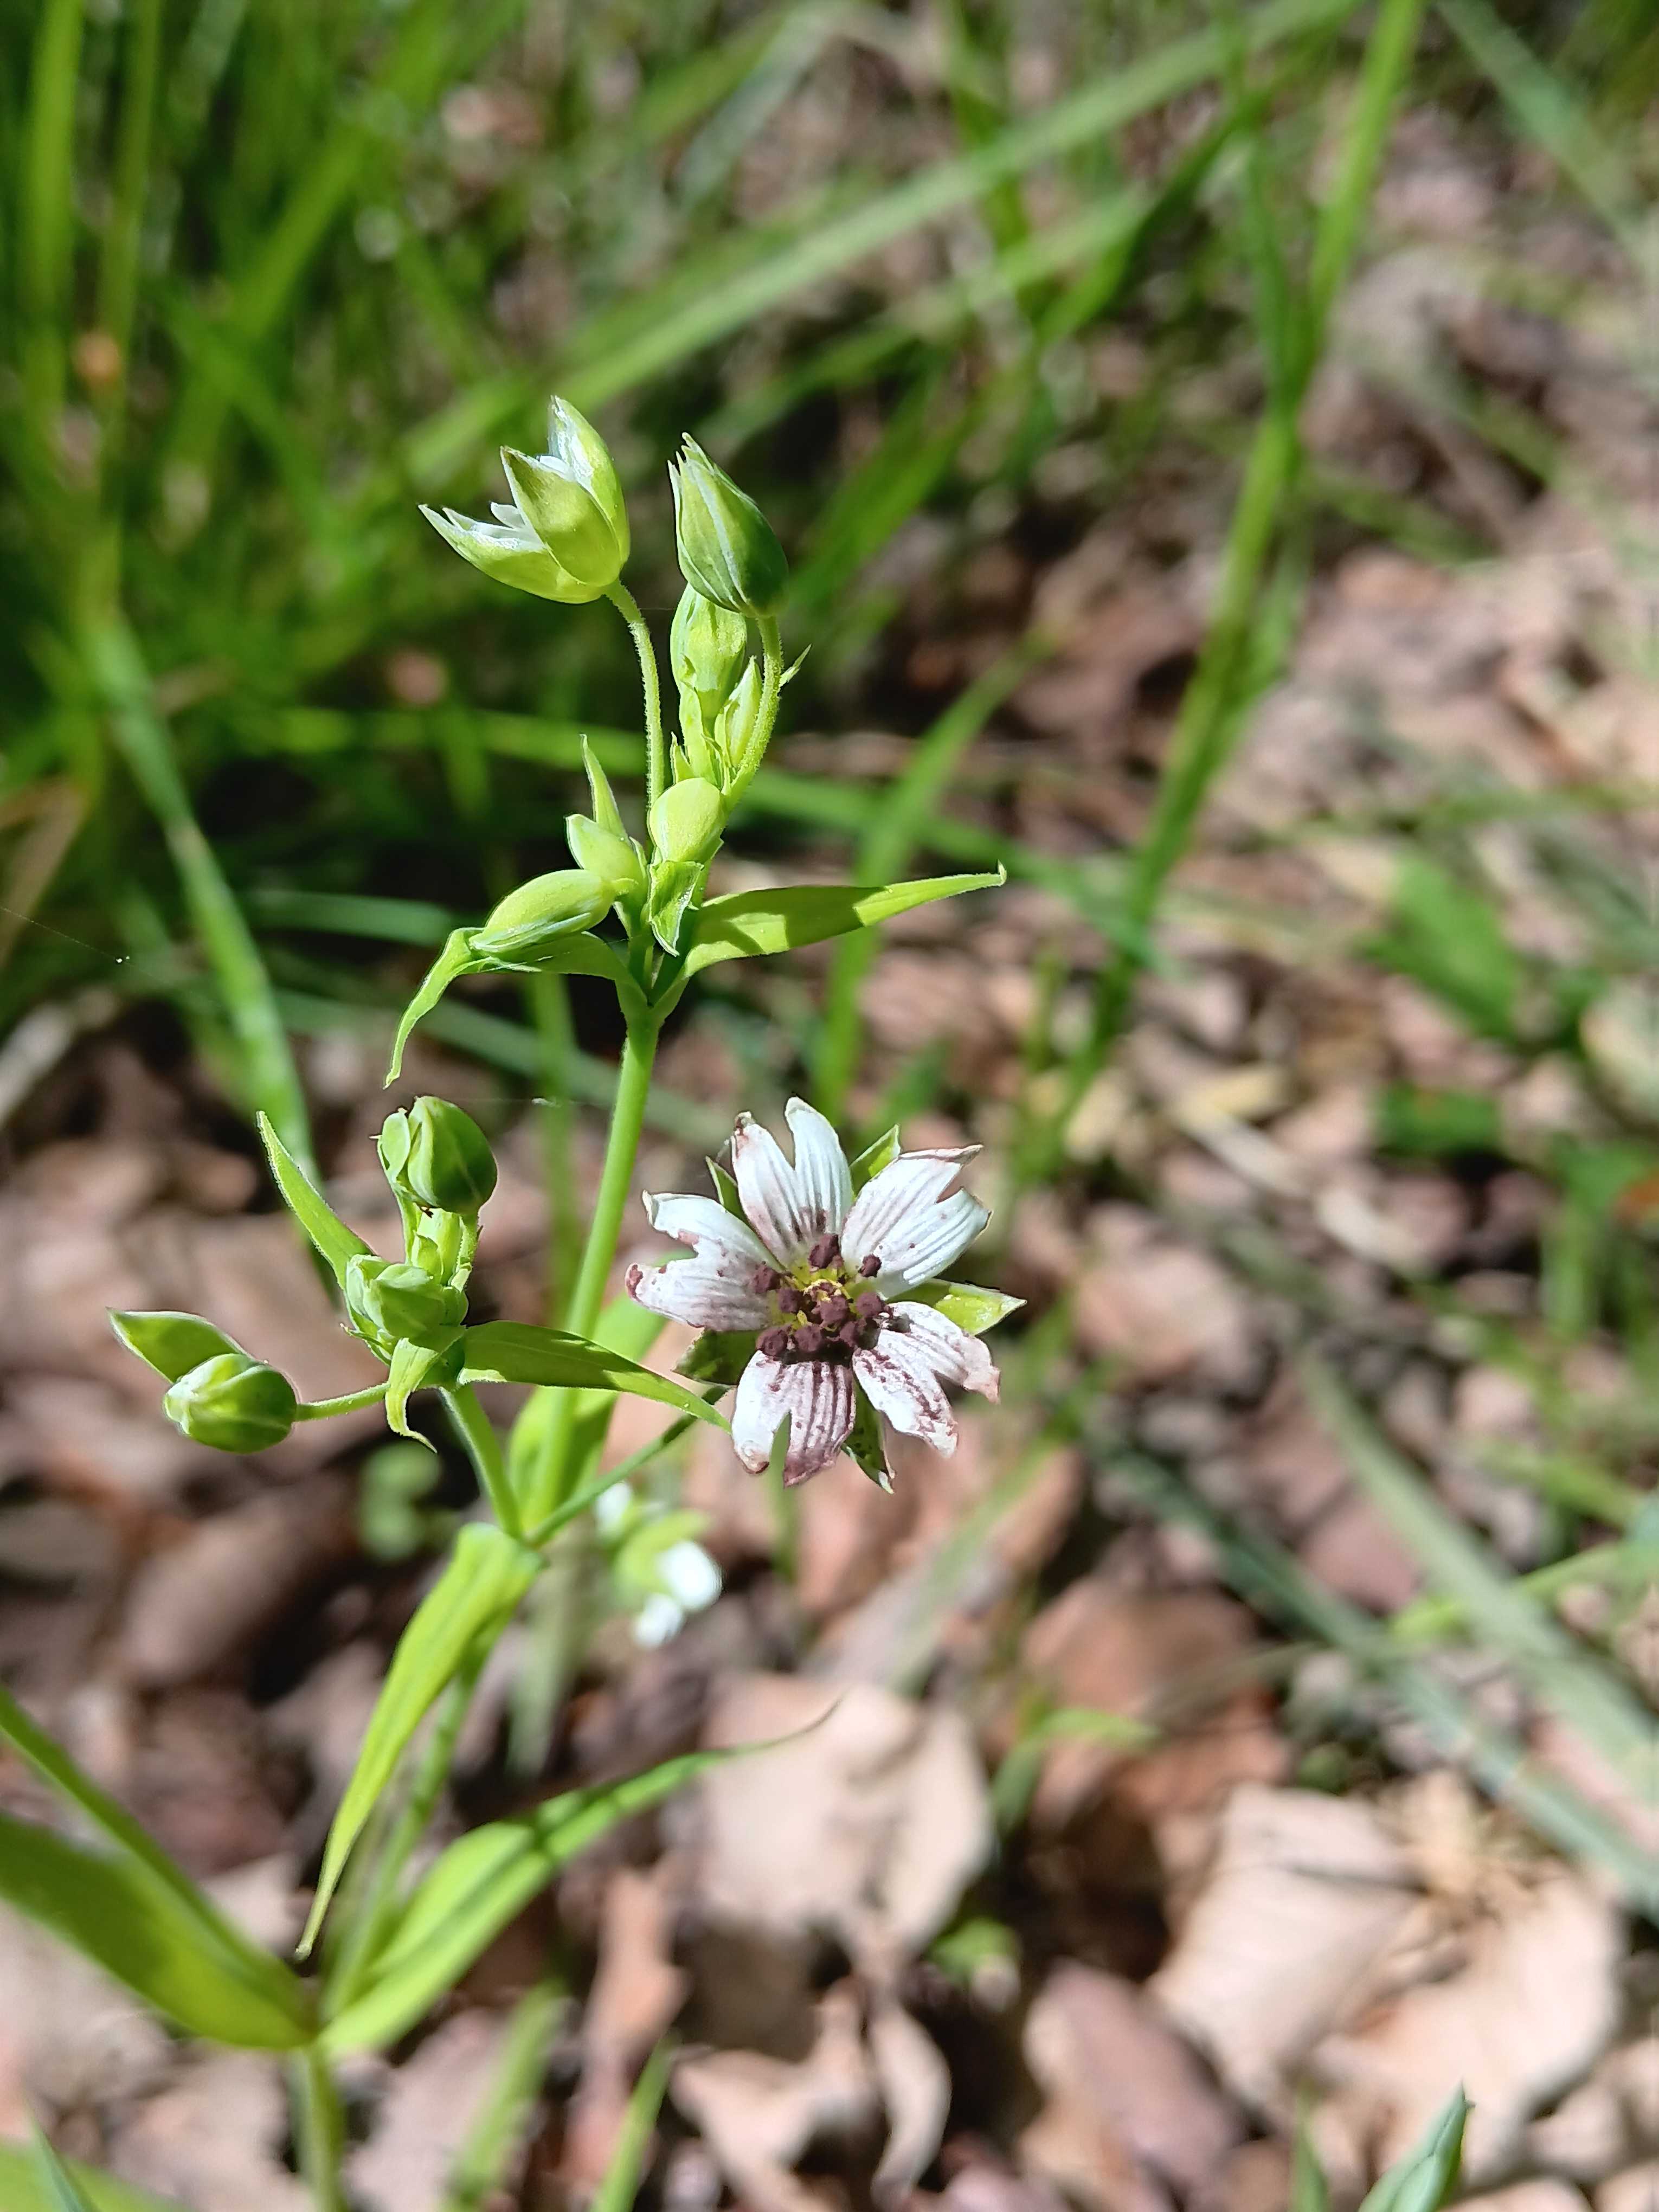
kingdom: Fungi
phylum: Basidiomycota
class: Microbotryomycetes
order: Microbotryales
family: Microbotryaceae
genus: Microbotryum
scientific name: Microbotryum stellariae
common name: fladstjerne-støvbladrust
